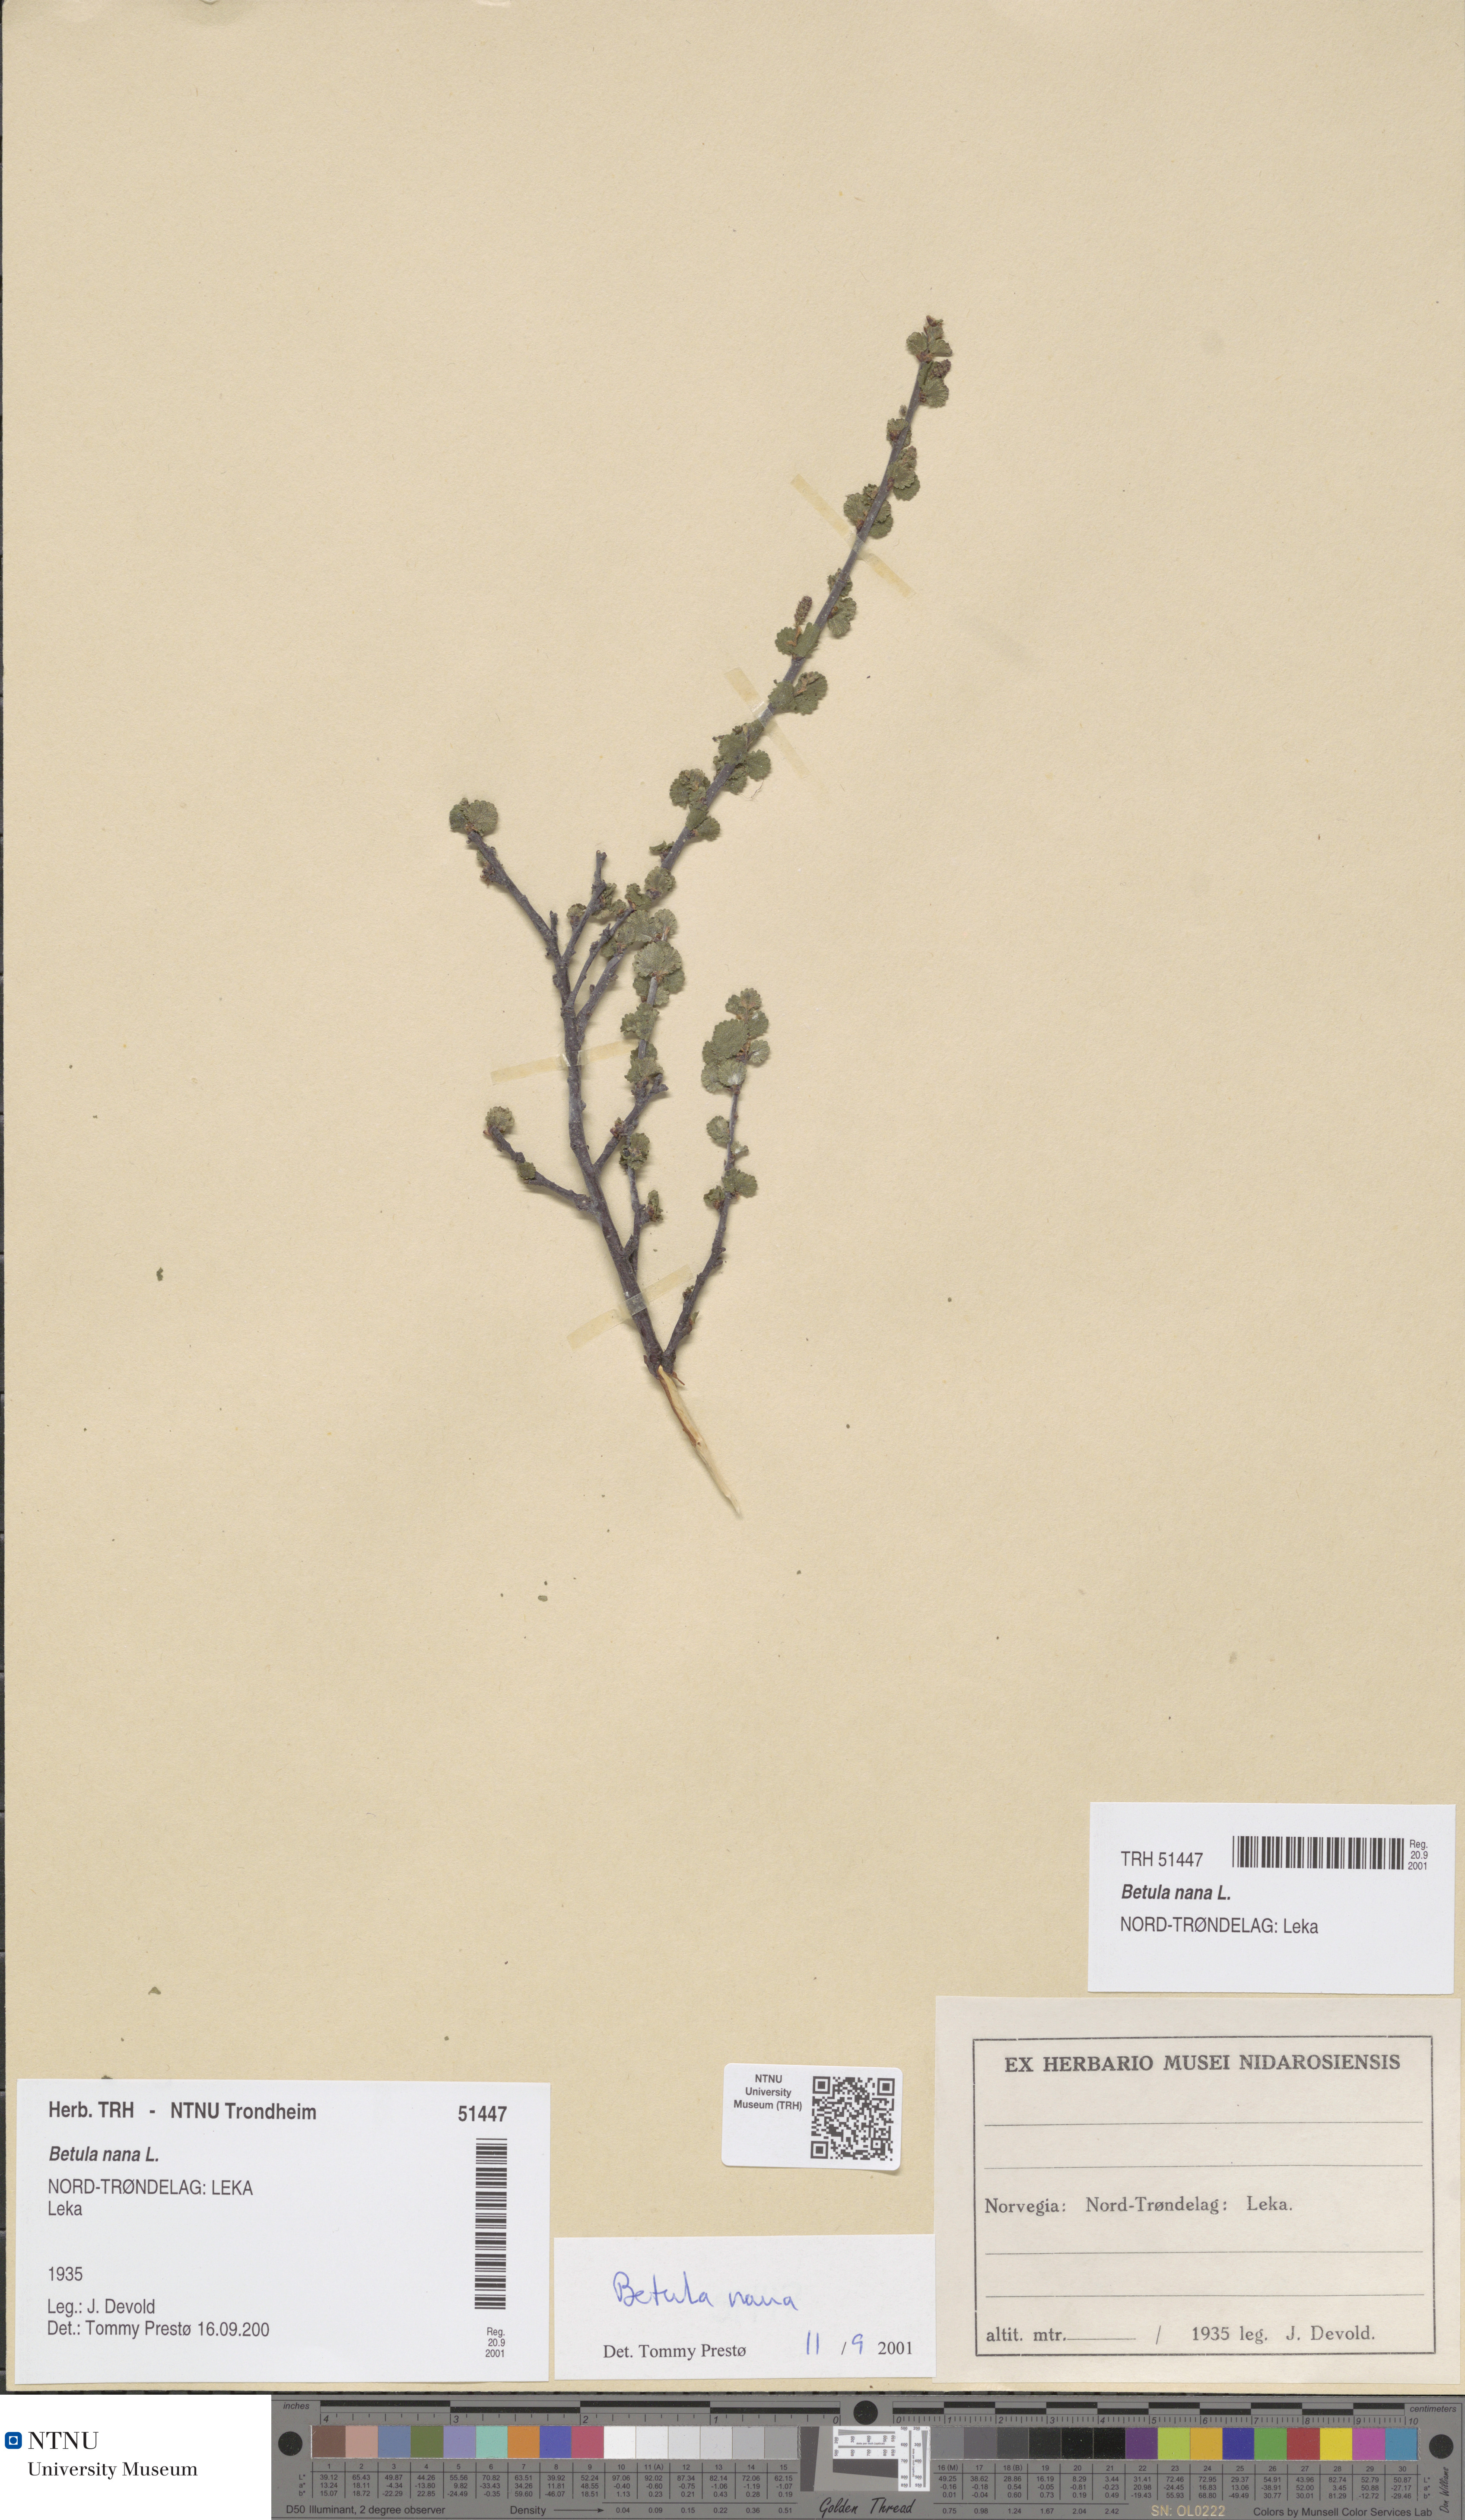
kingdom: Plantae
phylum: Tracheophyta
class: Magnoliopsida
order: Fagales
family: Betulaceae
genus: Betula
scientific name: Betula nana
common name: Arctic dwarf birch
